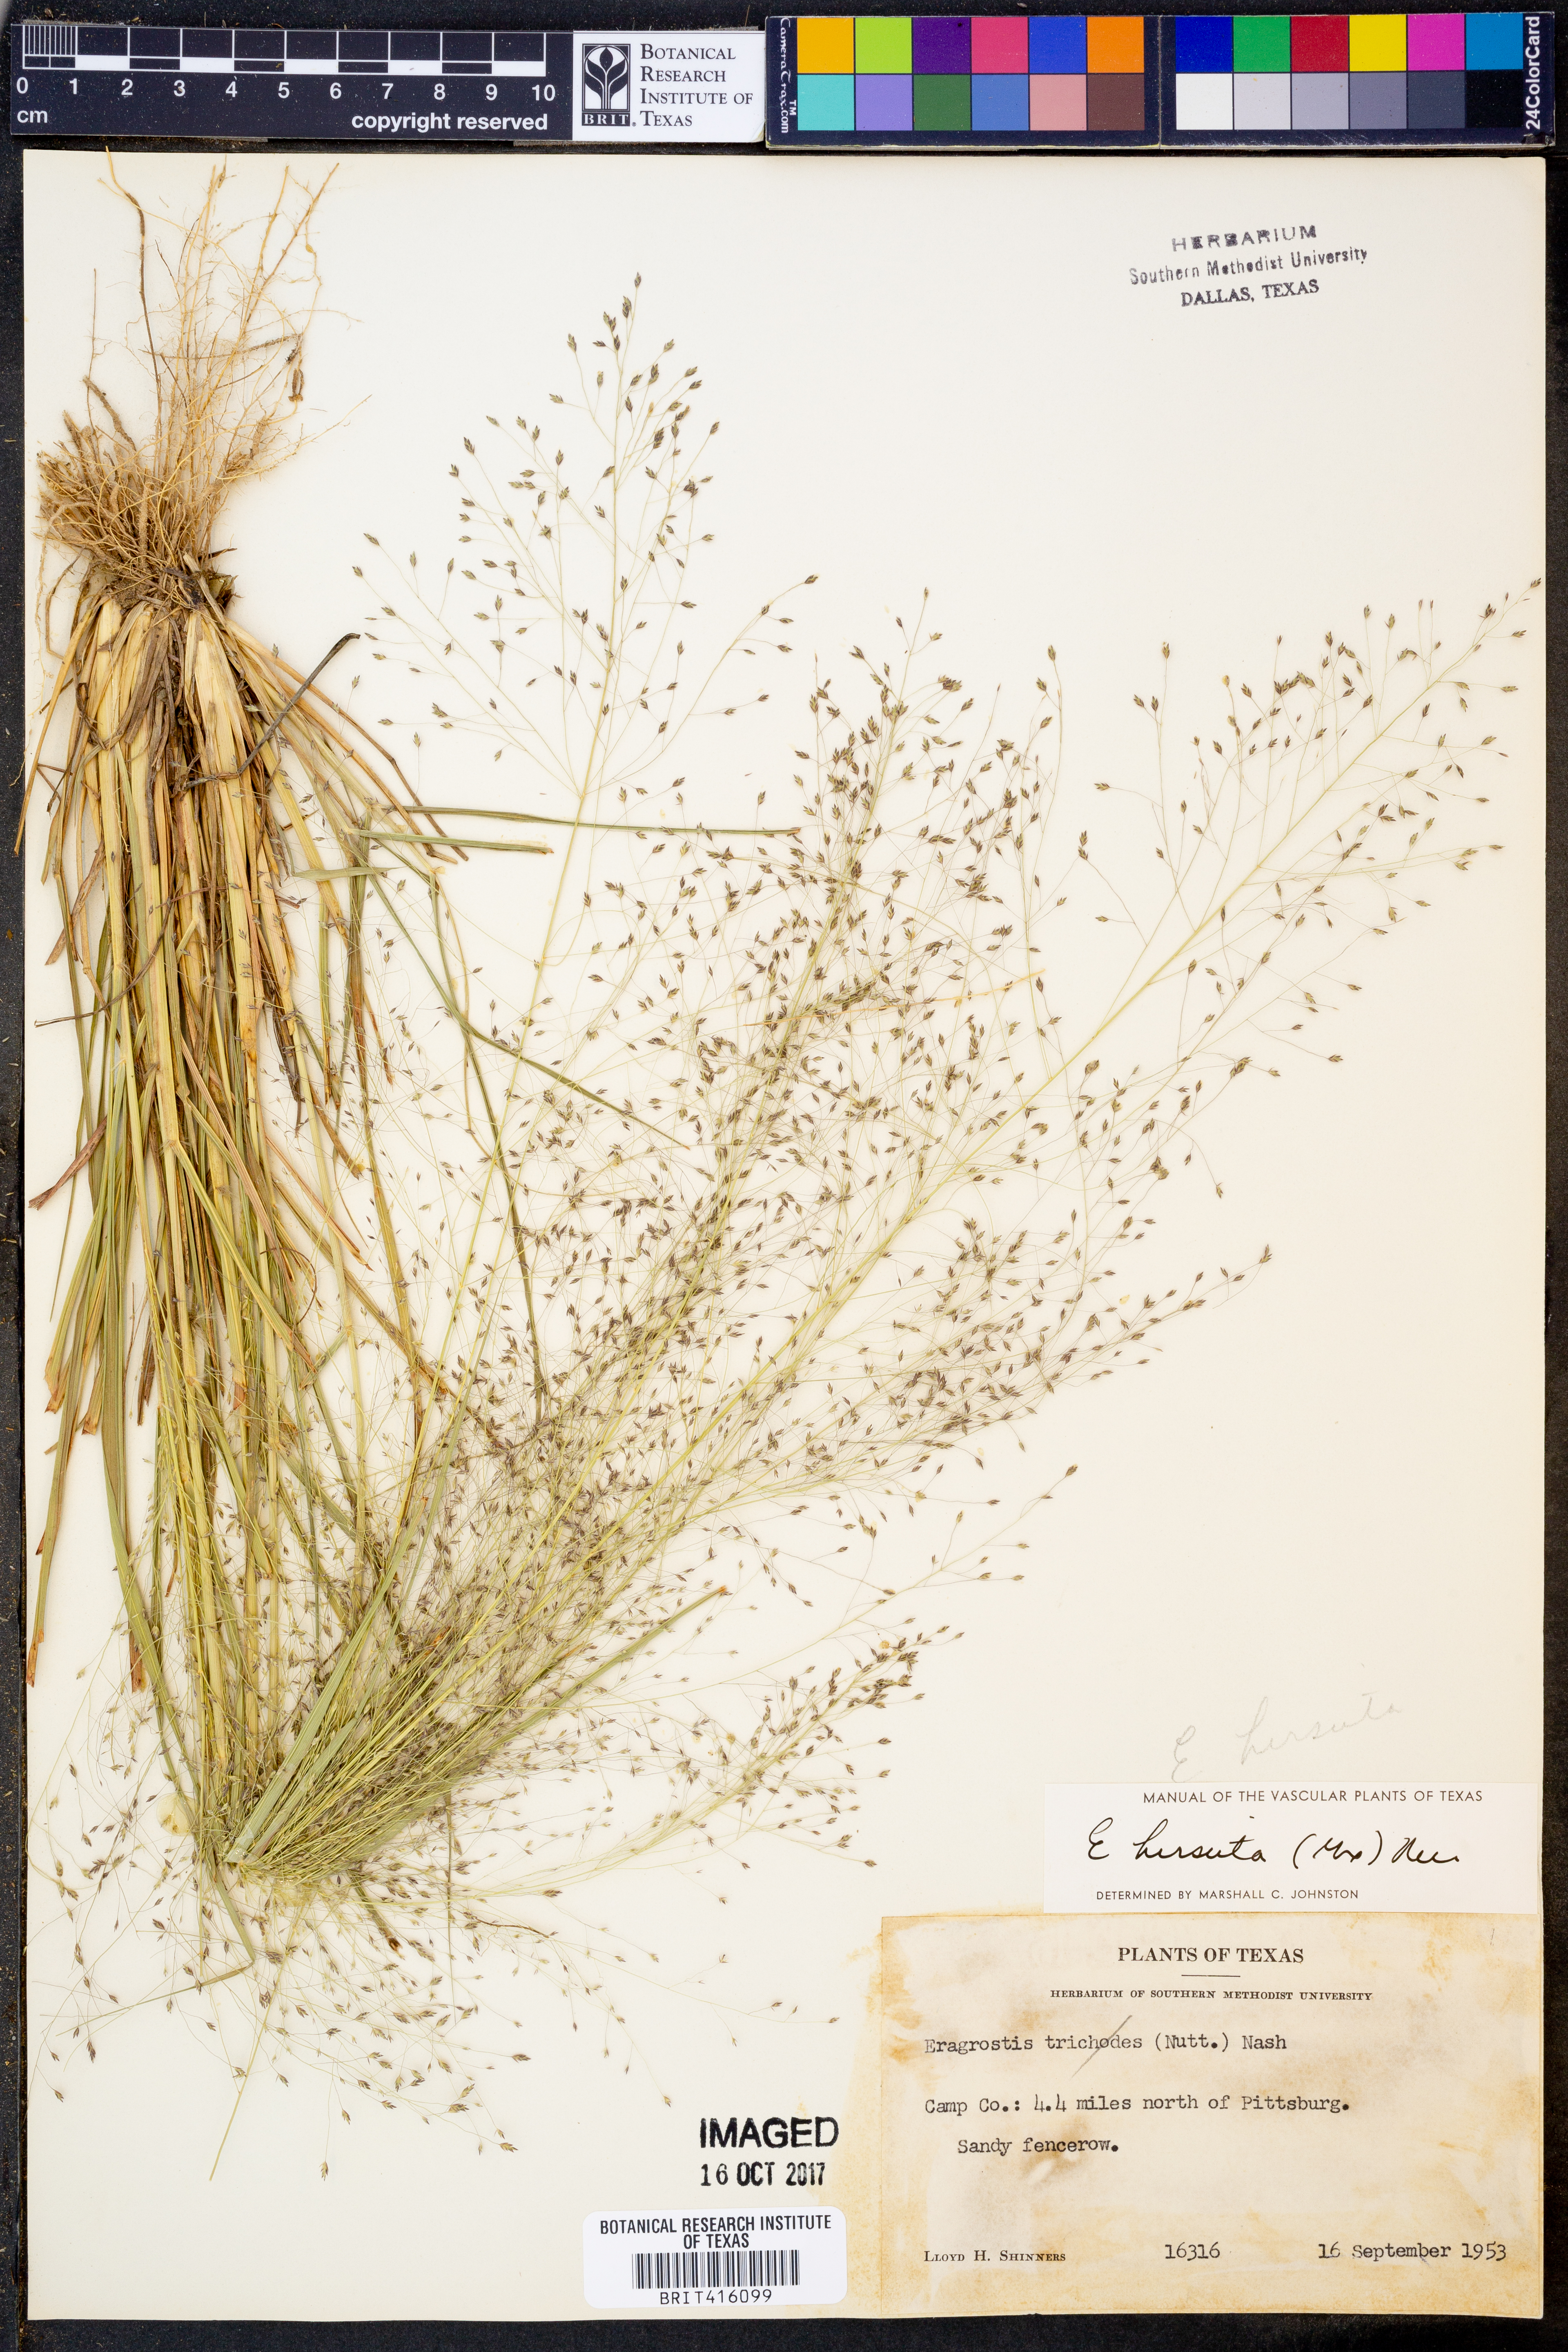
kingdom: Plantae
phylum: Tracheophyta
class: Liliopsida
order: Poales
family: Poaceae
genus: Eragrostis
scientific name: Eragrostis hirsuta
